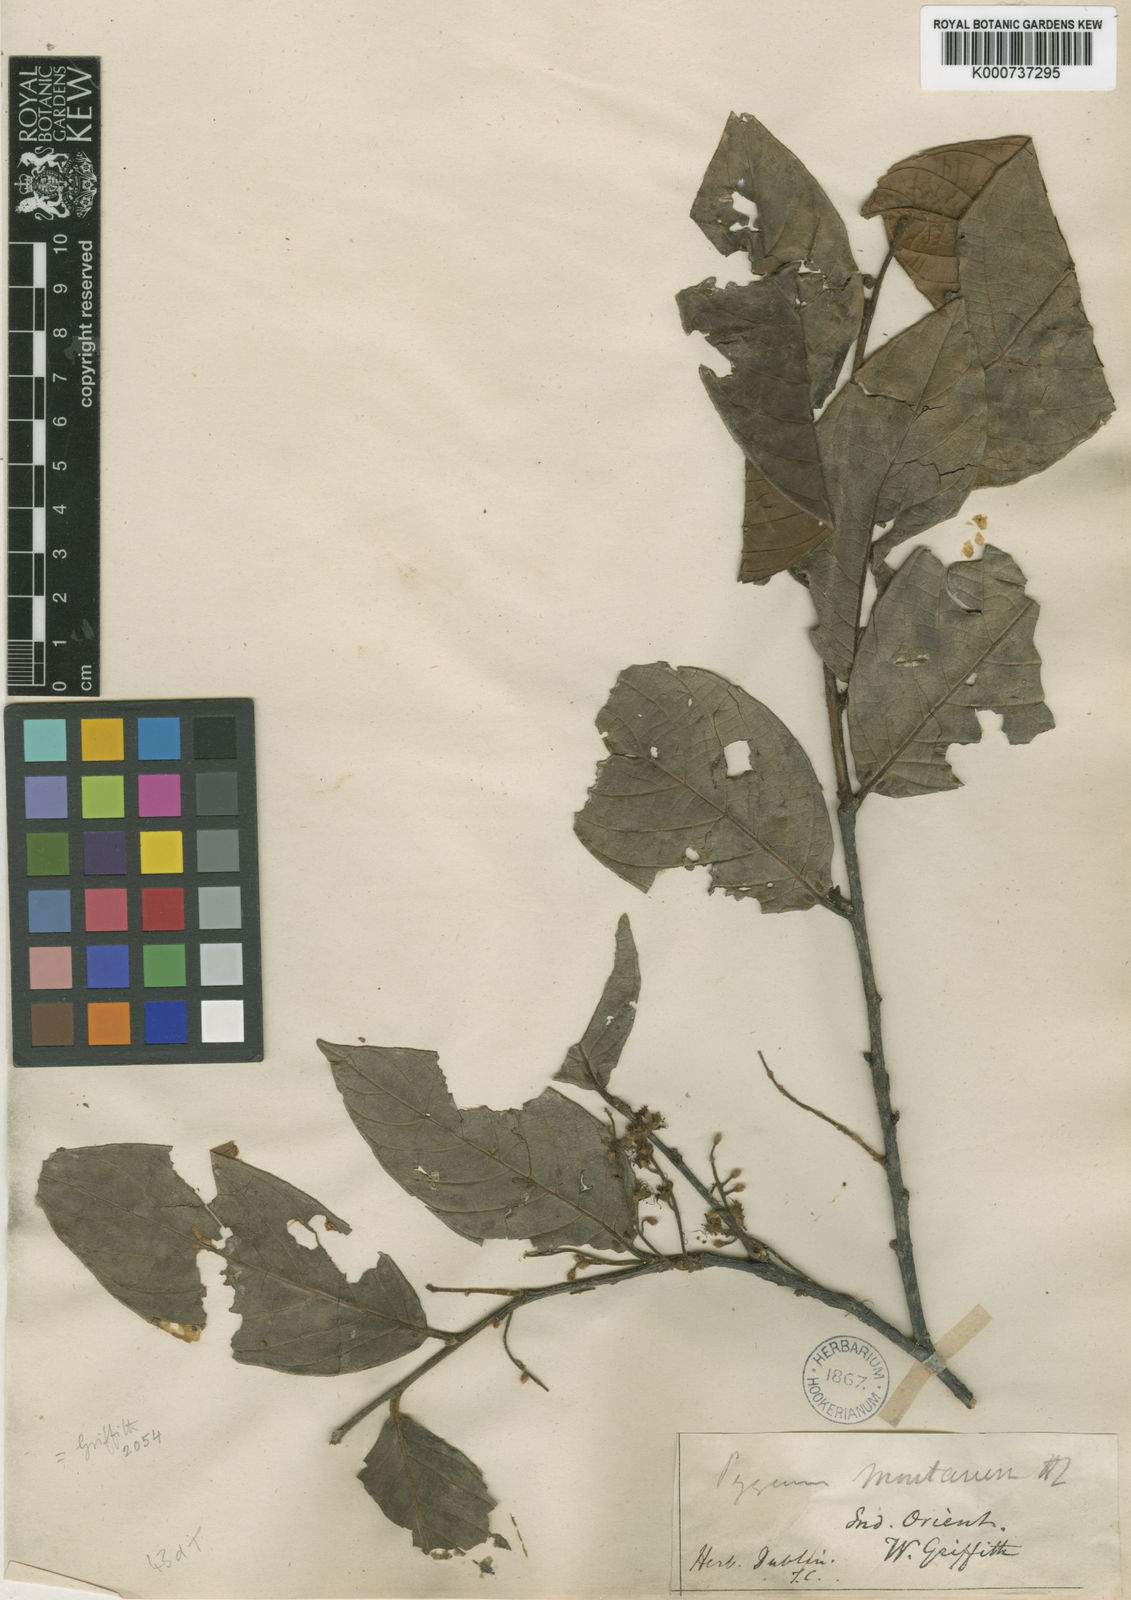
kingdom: Plantae
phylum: Tracheophyta
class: Magnoliopsida
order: Rosales
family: Rosaceae
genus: Prunus
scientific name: Prunus arborea
